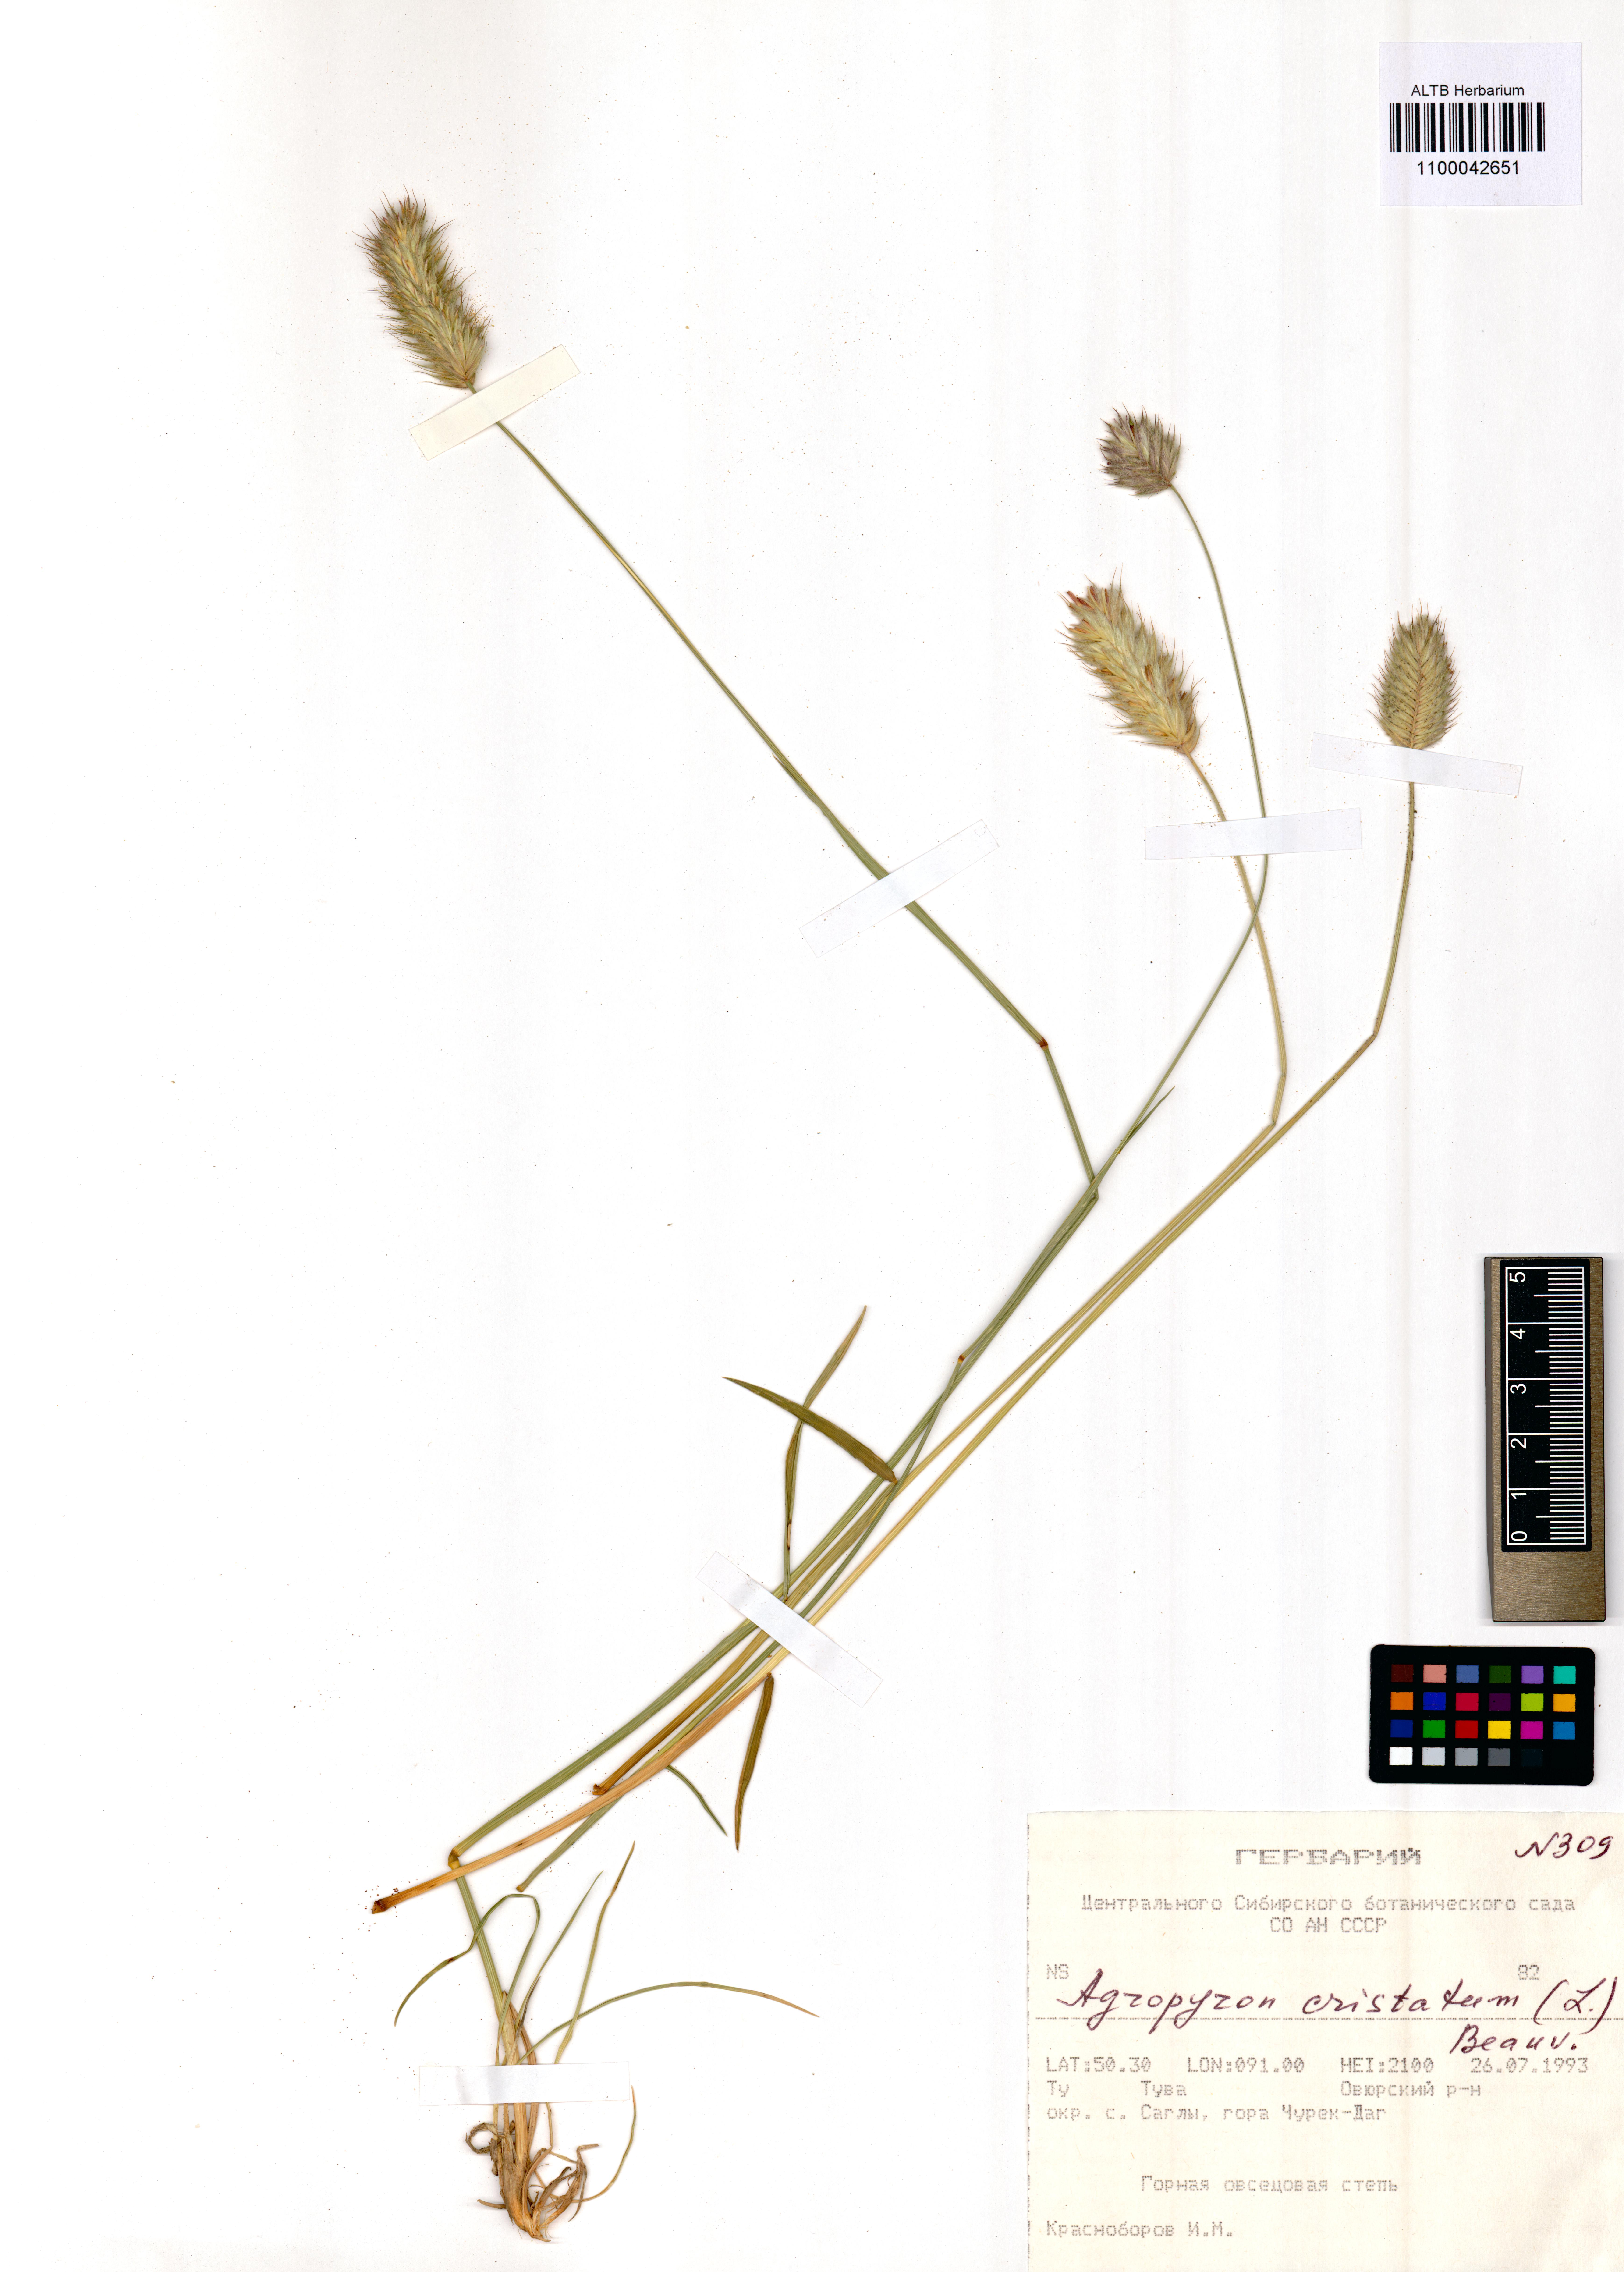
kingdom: Plantae
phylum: Tracheophyta
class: Liliopsida
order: Poales
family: Poaceae
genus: Agropyron
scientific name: Agropyron cristatum
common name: Crested wheatgrass
